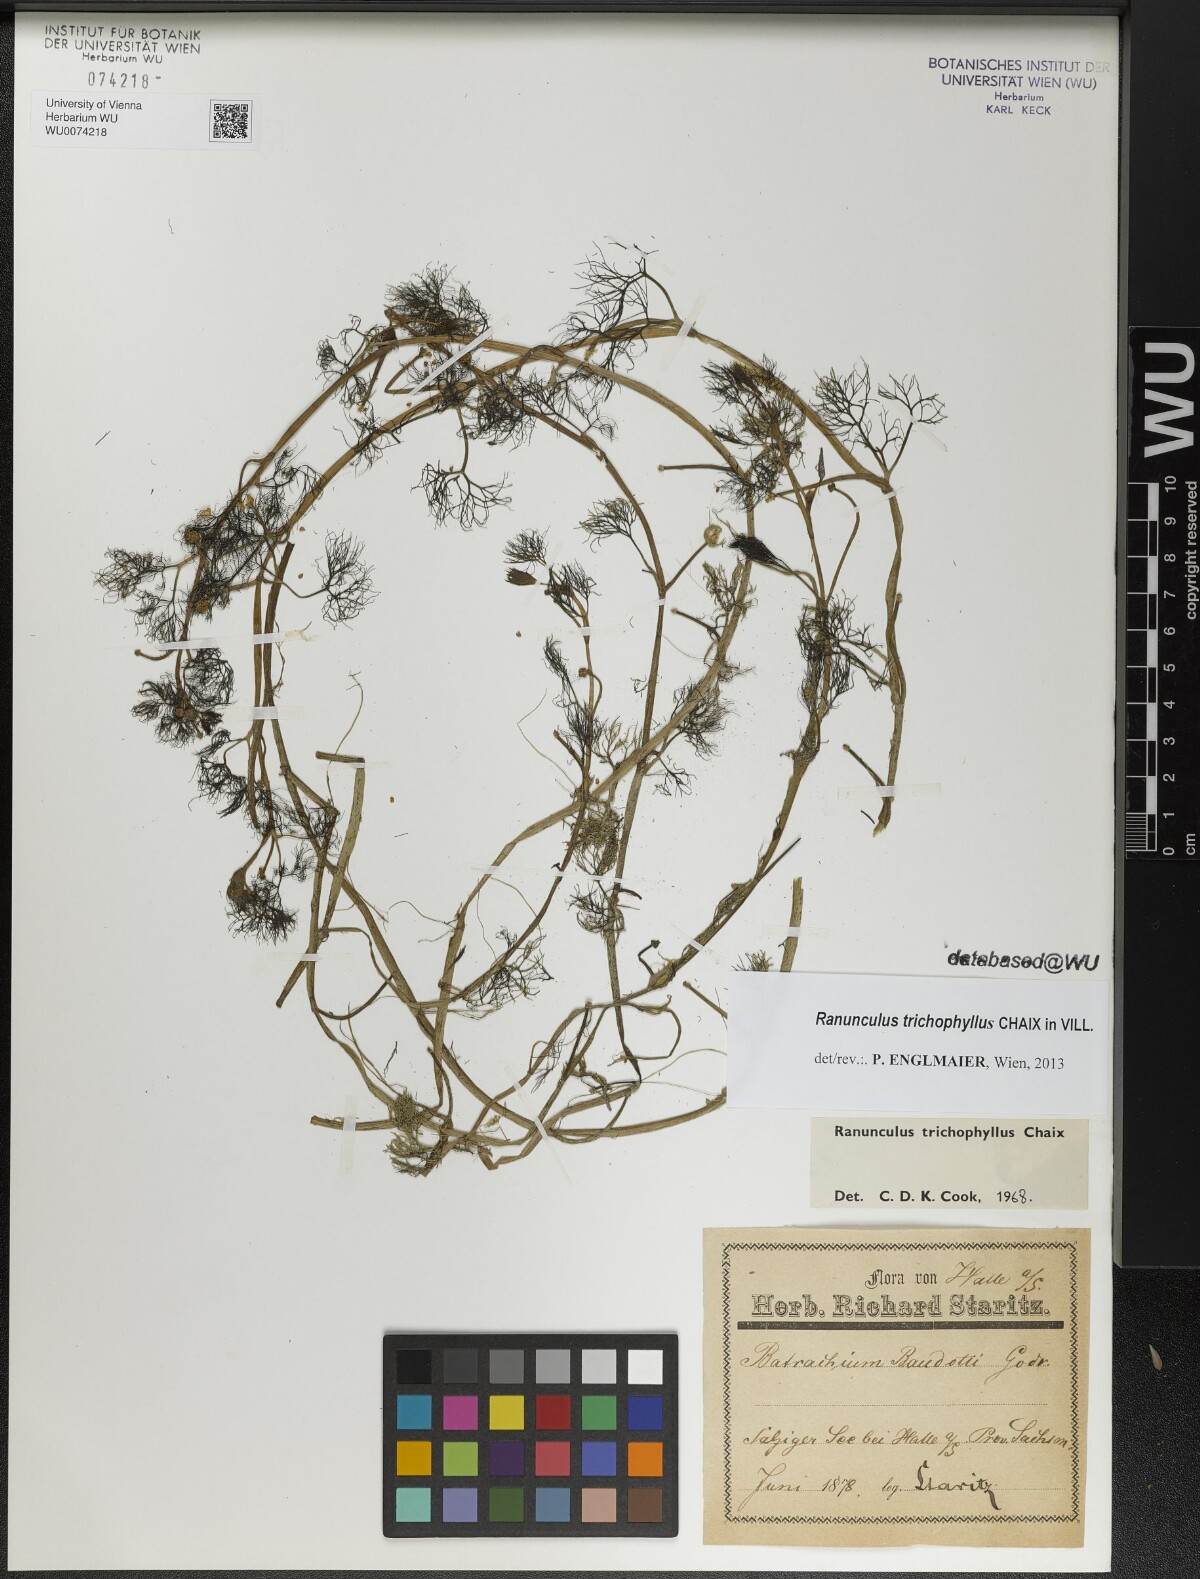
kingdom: Plantae
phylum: Tracheophyta
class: Magnoliopsida
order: Ranunculales
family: Ranunculaceae
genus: Ranunculus
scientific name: Ranunculus trichophyllus
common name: Thread-leaved water-crowfoot
